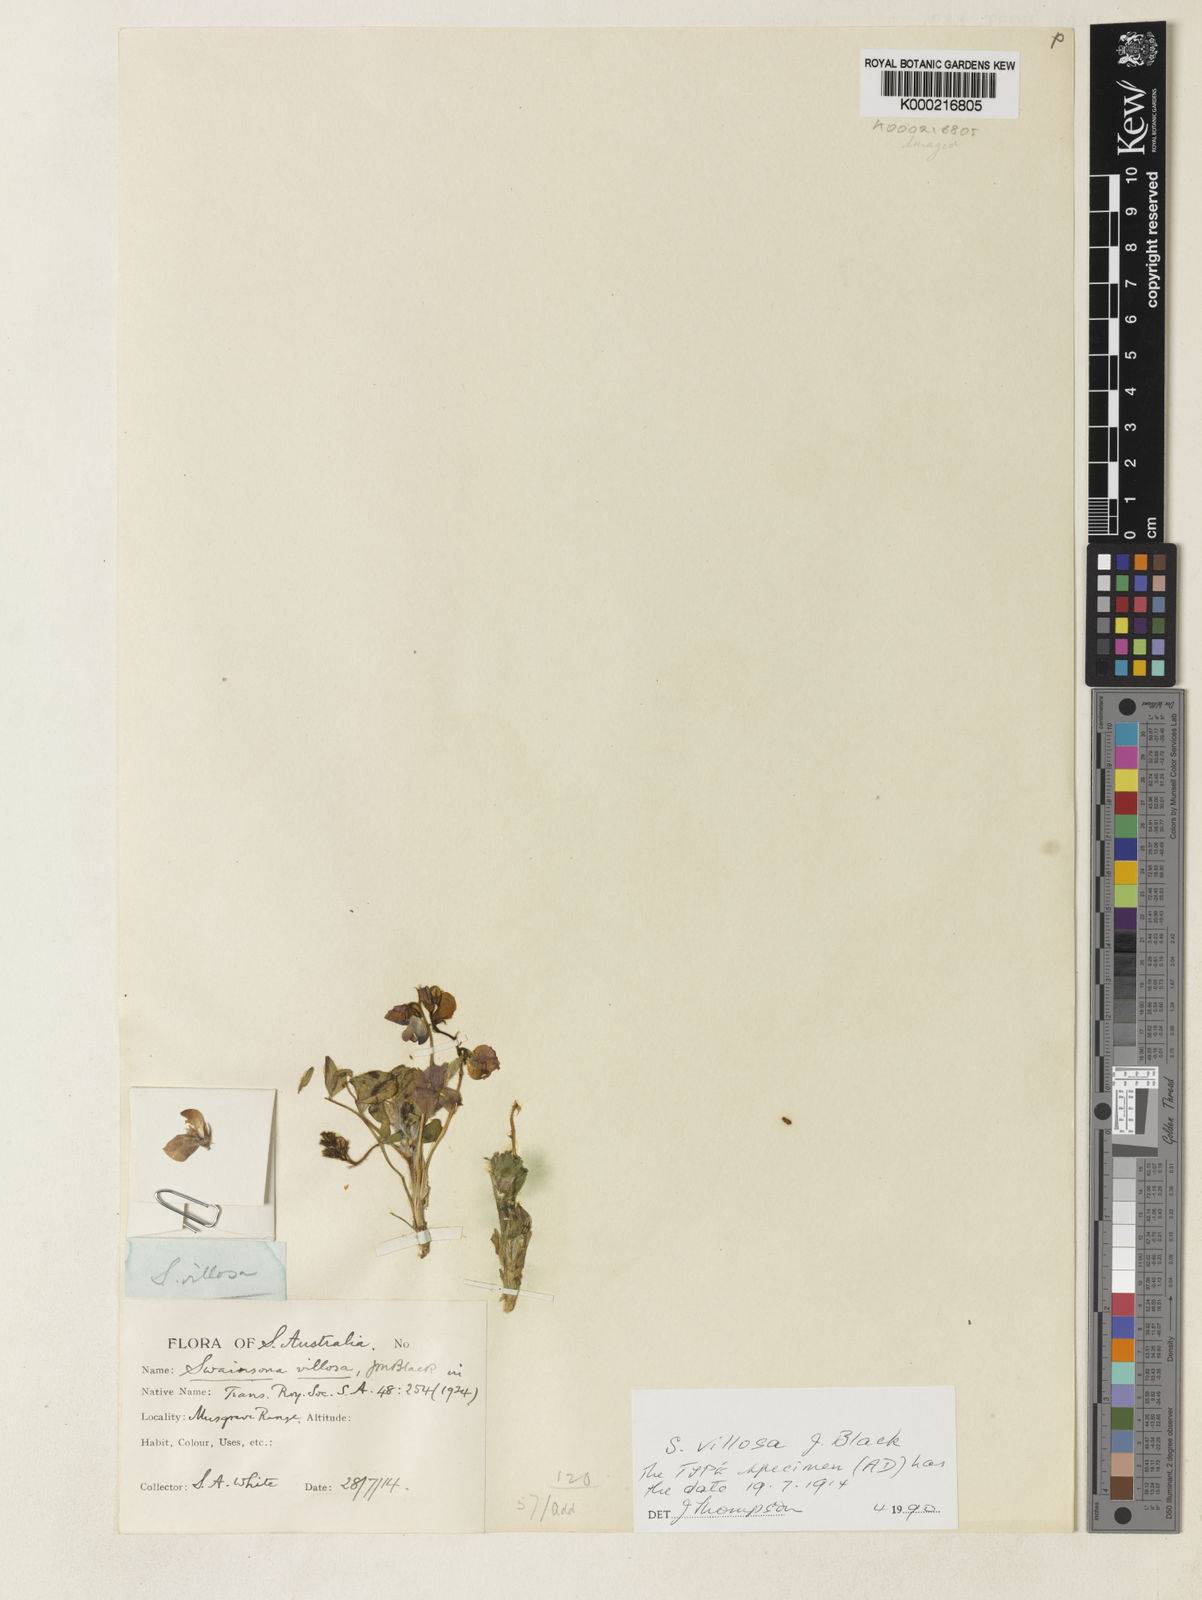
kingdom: Plantae
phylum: Tracheophyta
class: Magnoliopsida
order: Fabales
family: Fabaceae
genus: Swainsona
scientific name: Swainsona villosa
